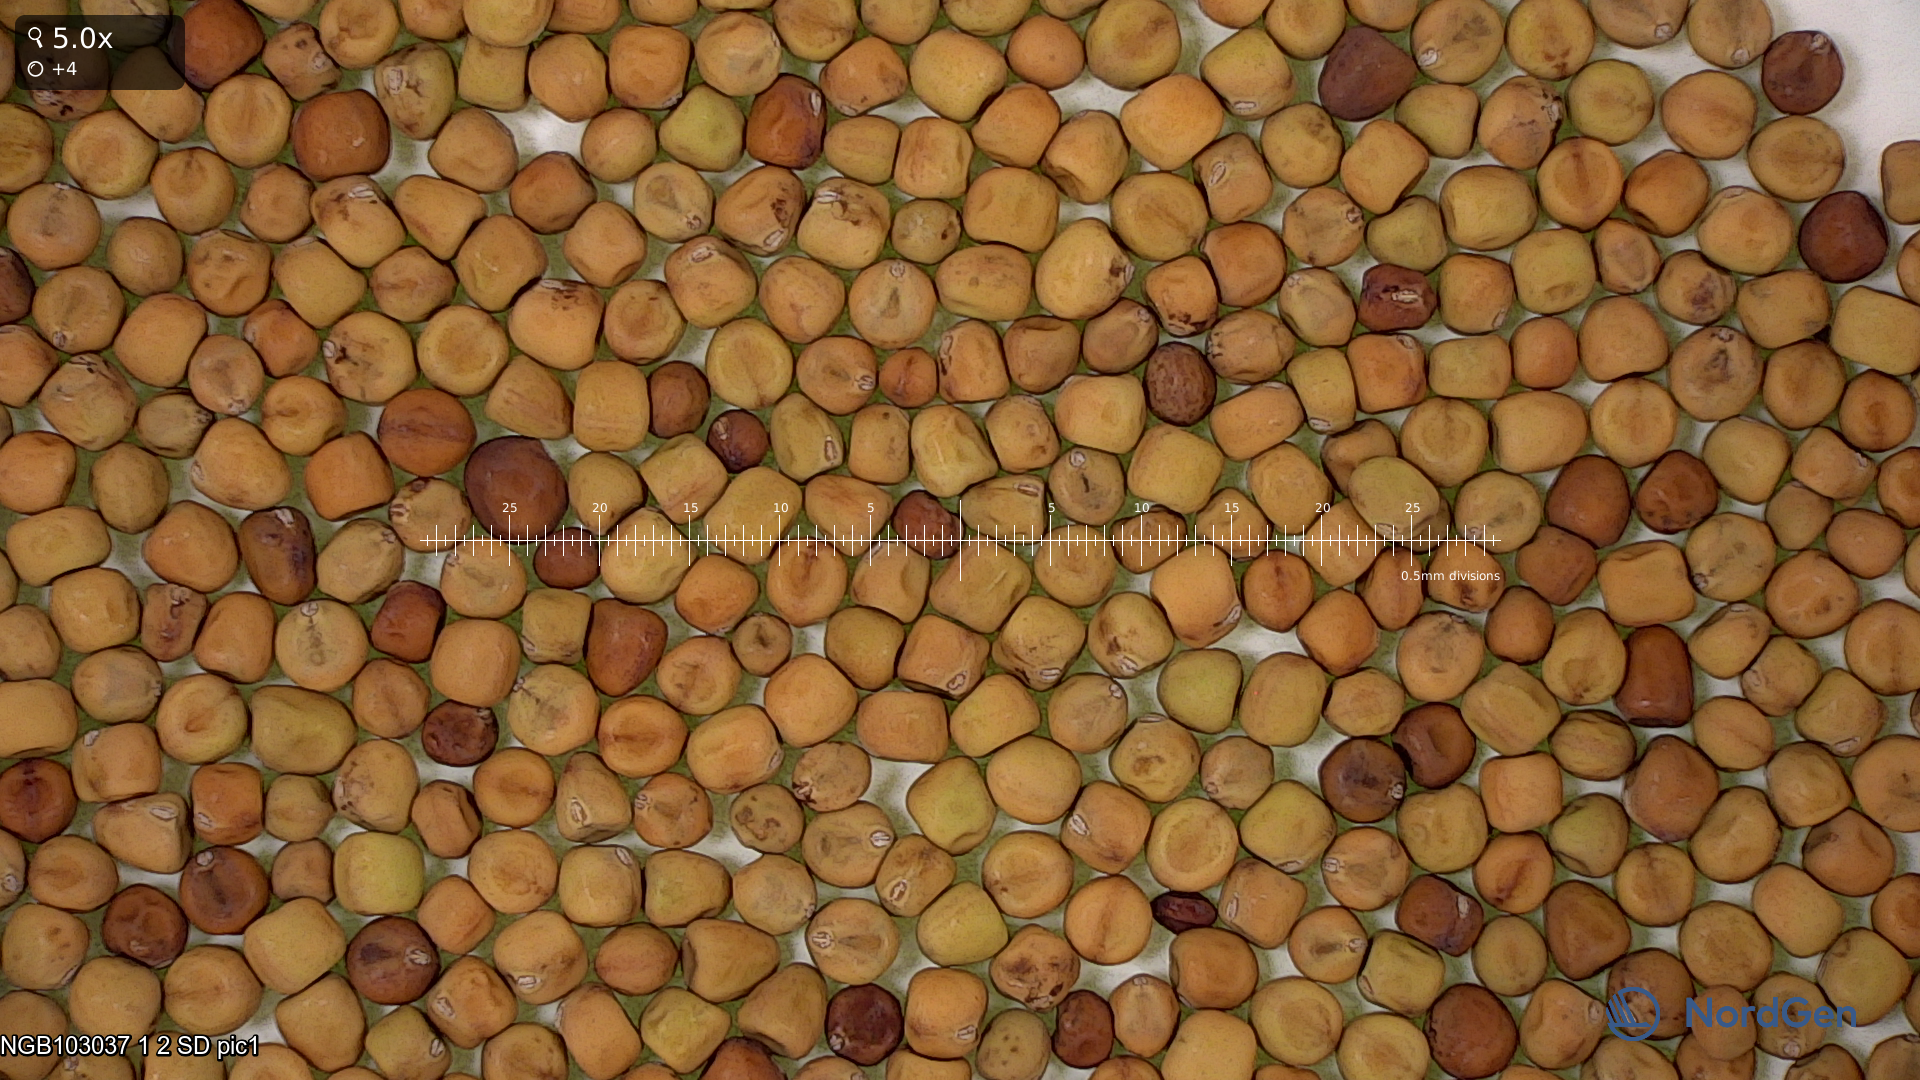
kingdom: Plantae
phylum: Tracheophyta
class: Magnoliopsida
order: Fabales
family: Fabaceae
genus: Lathyrus
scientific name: Lathyrus oleraceus
